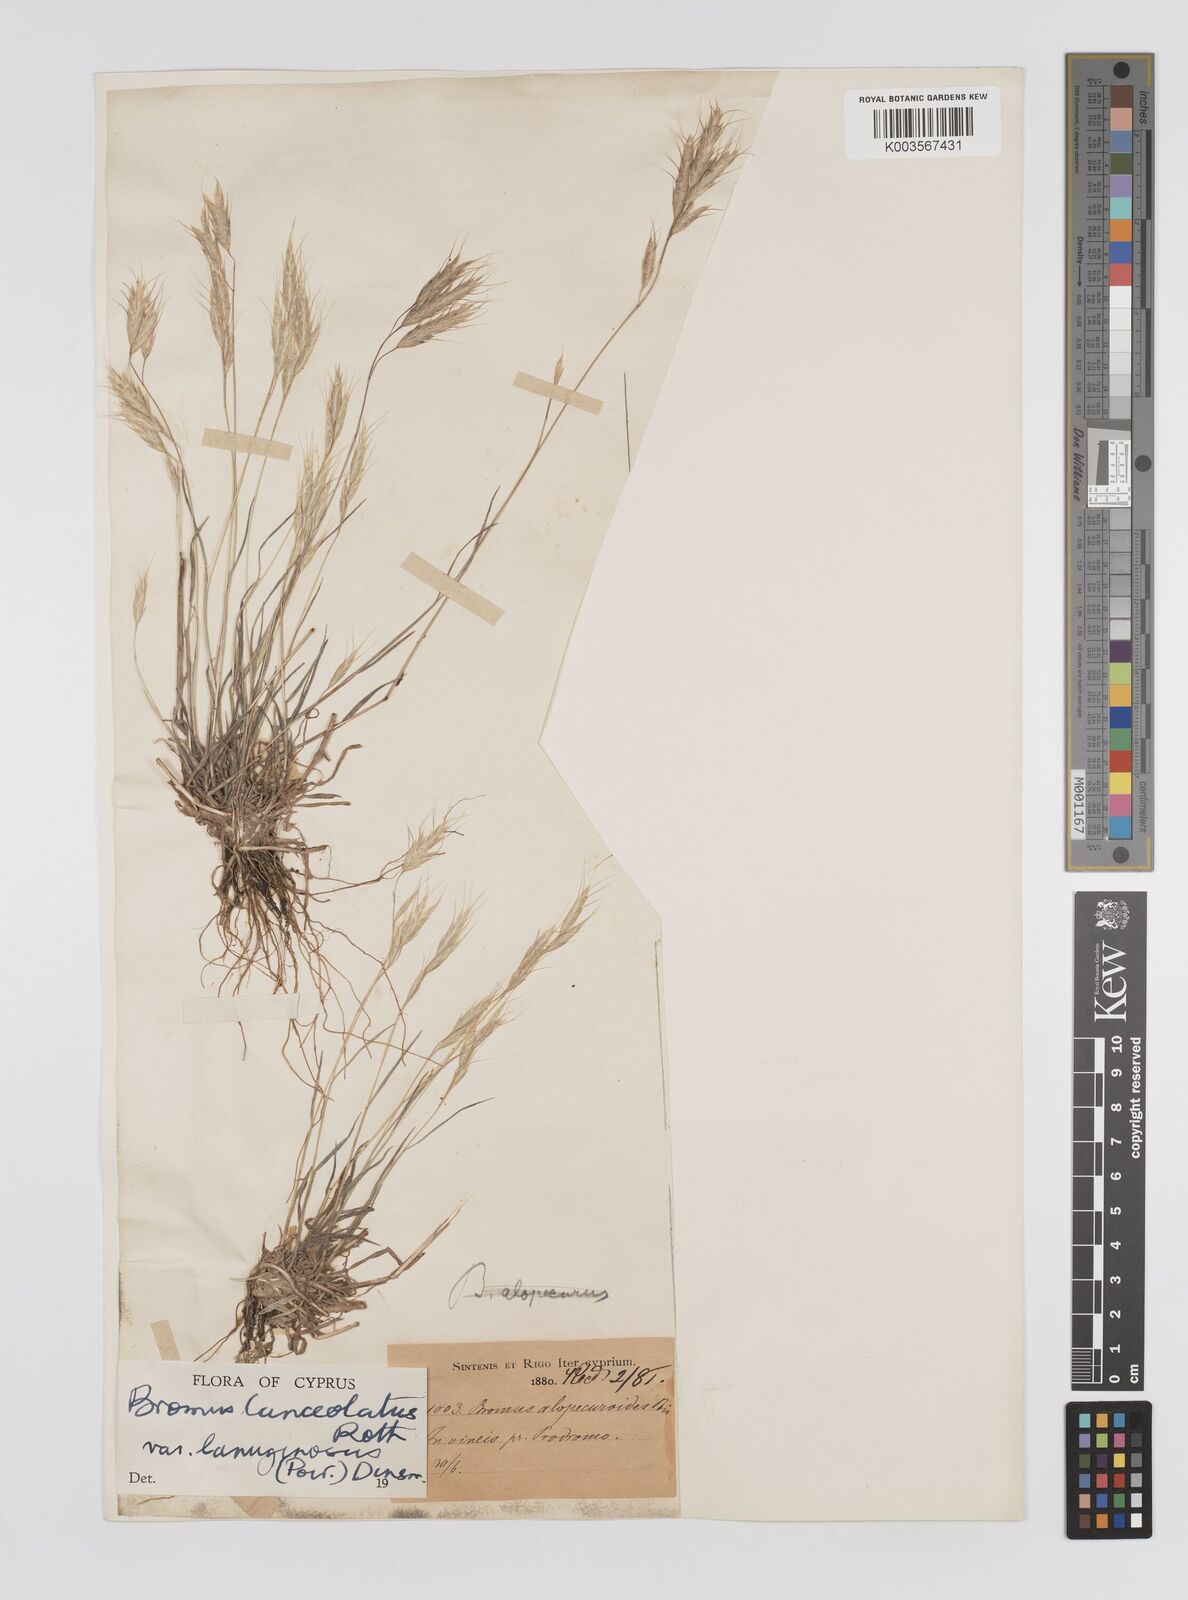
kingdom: Plantae
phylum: Tracheophyta
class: Liliopsida
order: Poales
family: Poaceae
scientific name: Poaceae
